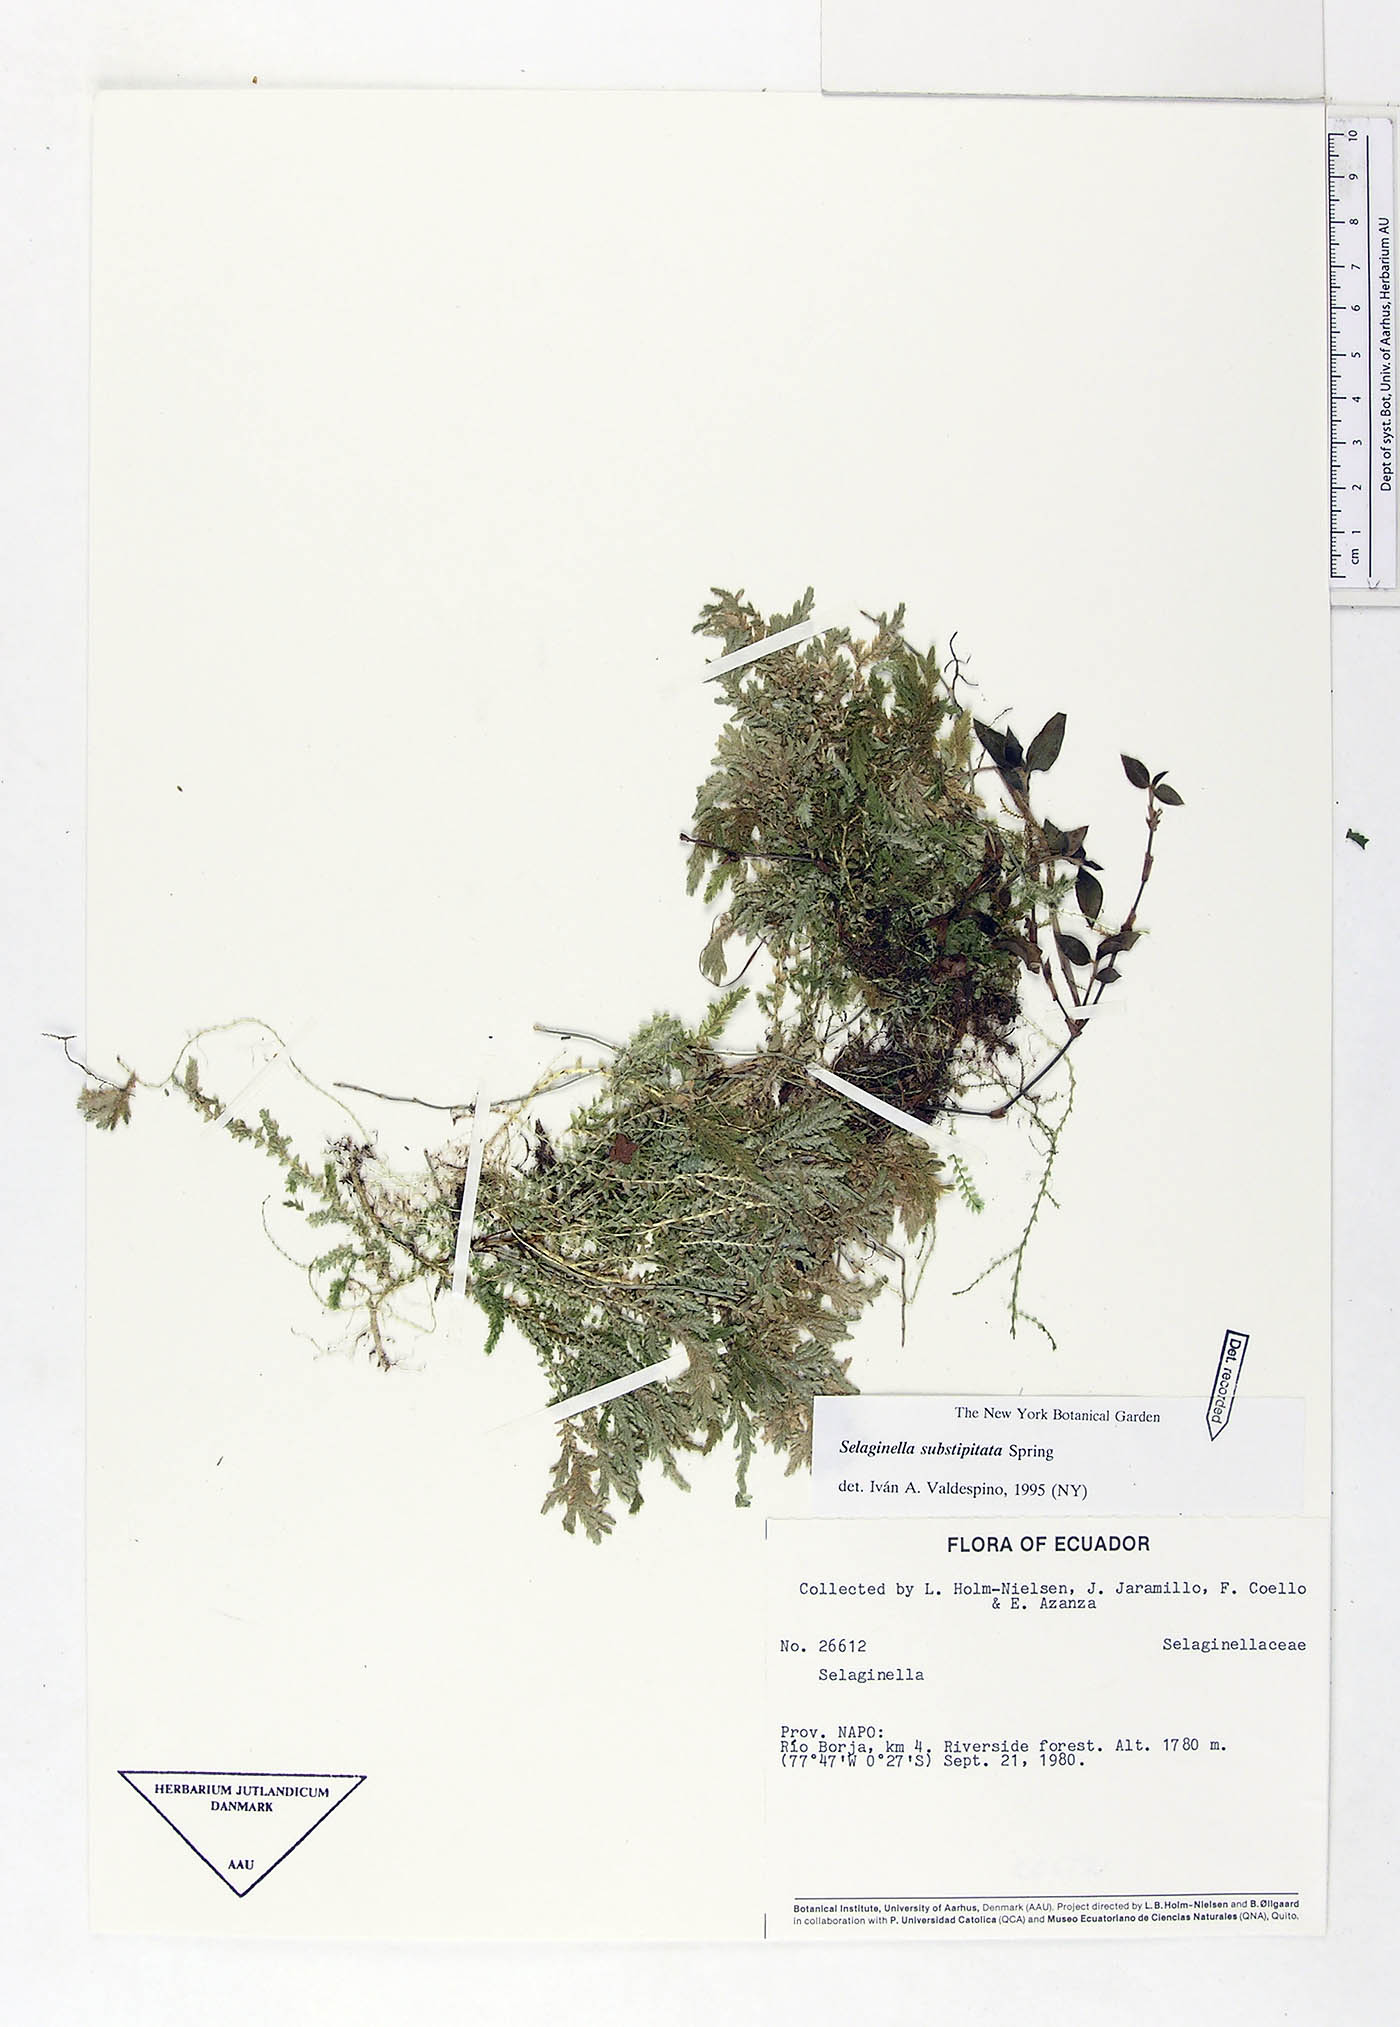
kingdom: Plantae
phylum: Tracheophyta
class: Lycopodiopsida
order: Selaginellales
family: Selaginellaceae
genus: Selaginella
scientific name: Selaginella substipitata
